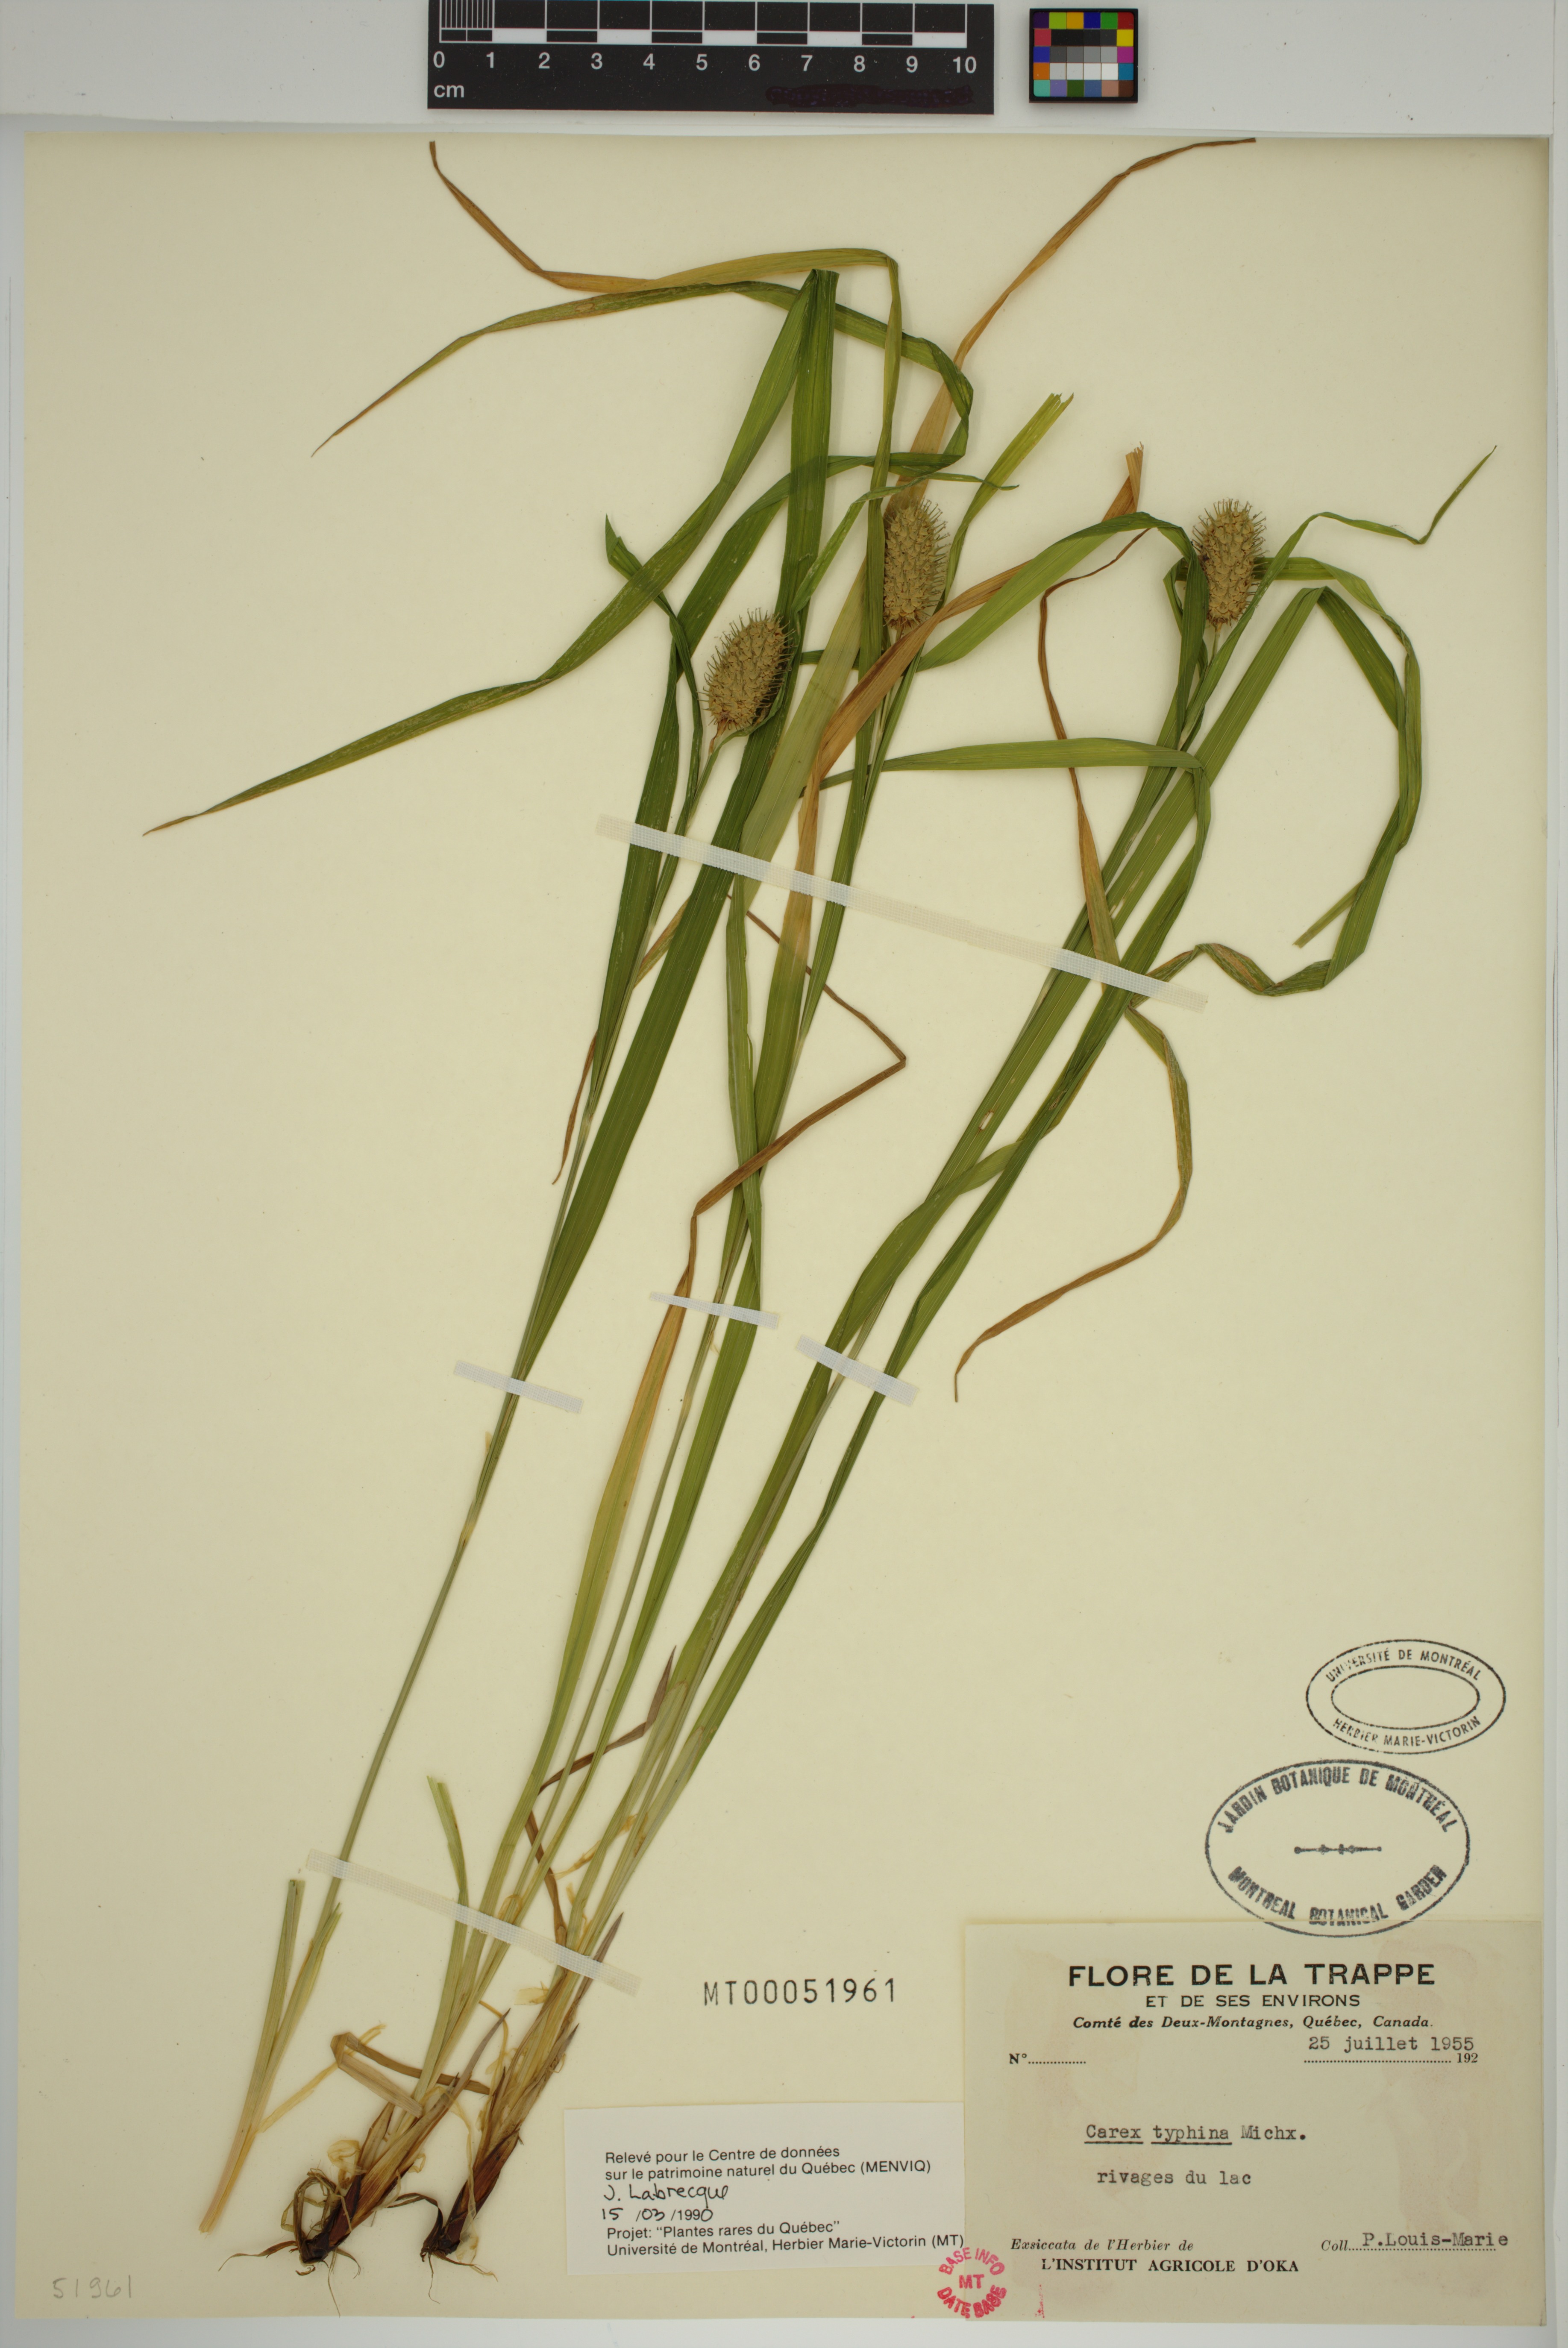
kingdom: Plantae
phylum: Tracheophyta
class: Liliopsida
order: Poales
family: Cyperaceae
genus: Carex
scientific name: Carex typhina
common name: Cattail sedge
